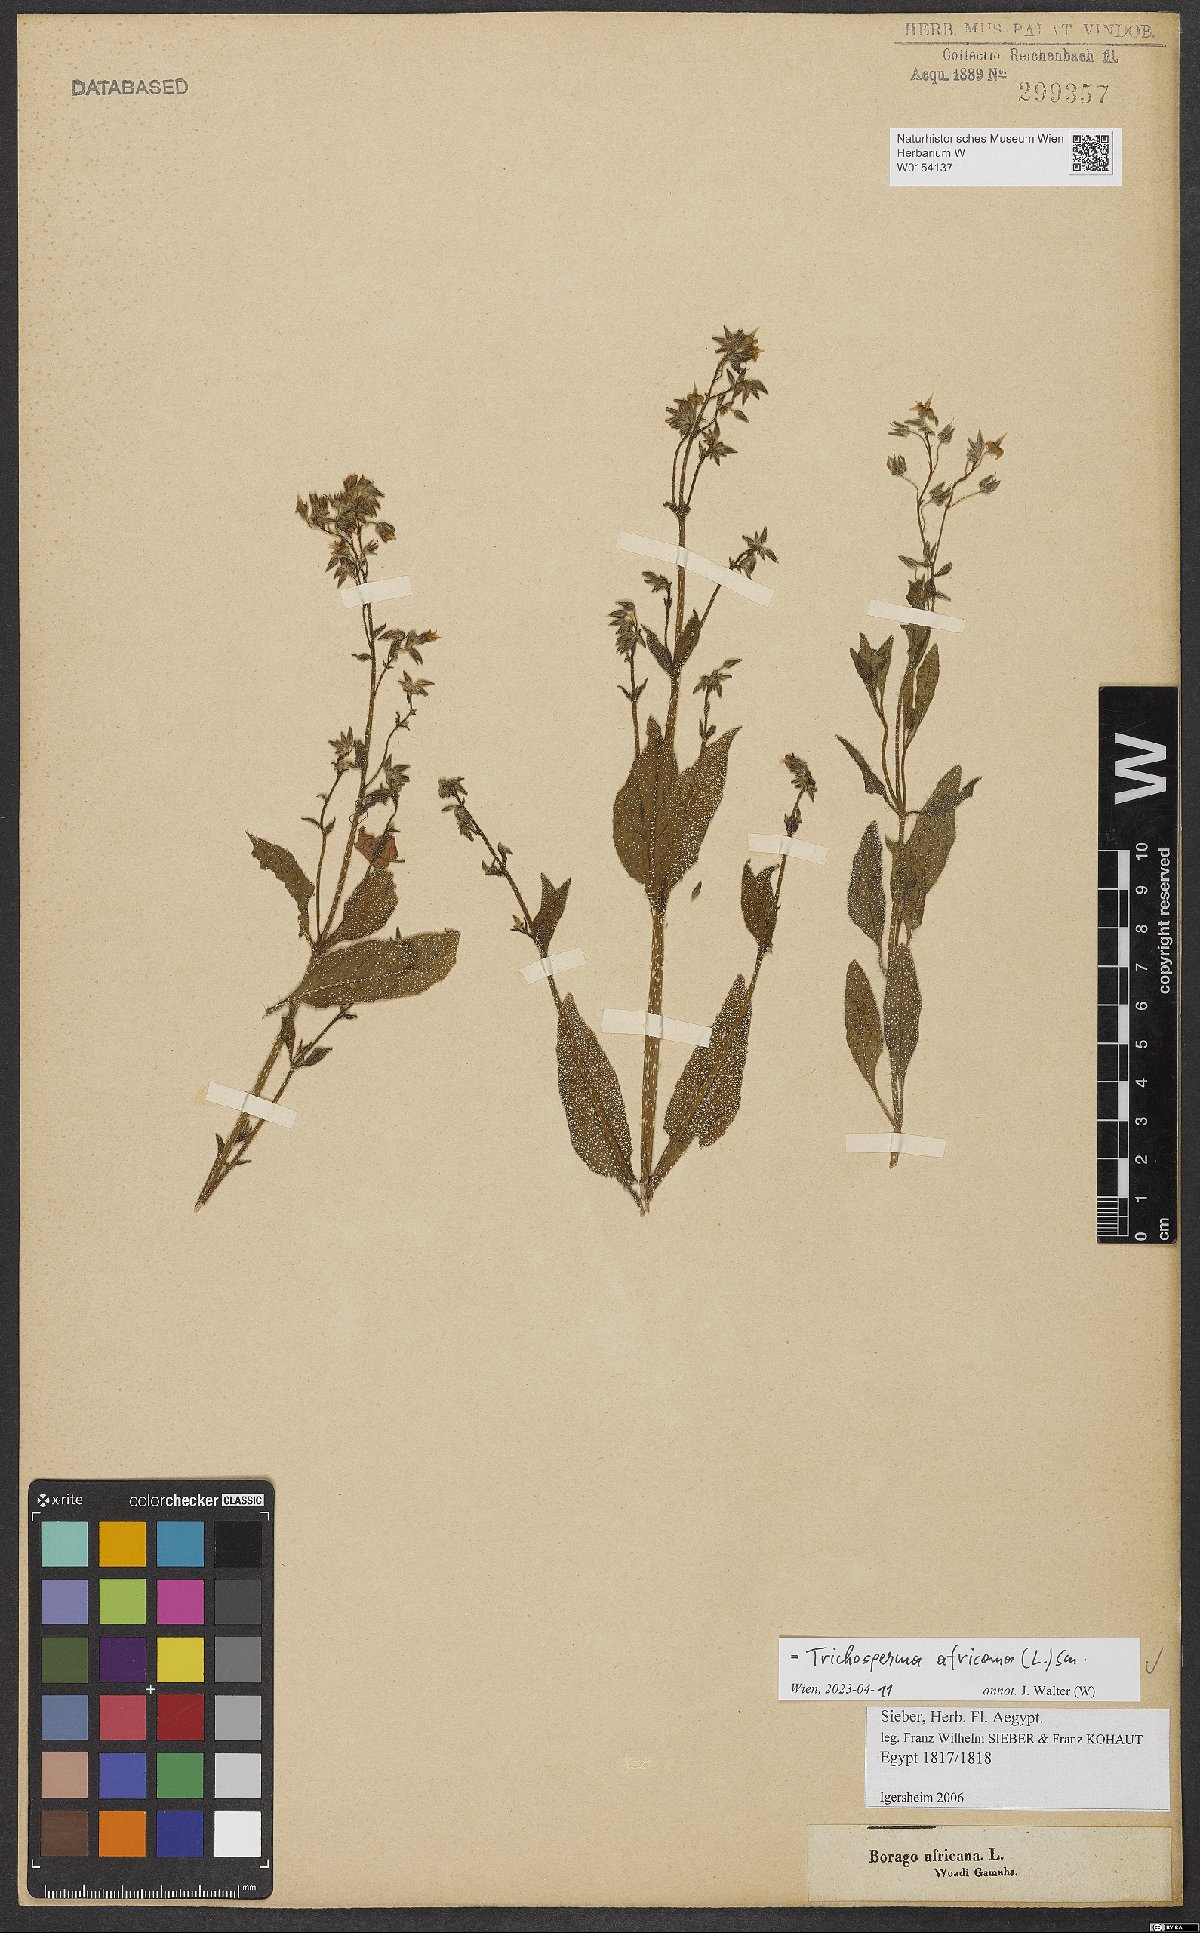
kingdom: Plantae
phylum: Tracheophyta
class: Magnoliopsida
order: Boraginales
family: Boraginaceae
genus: Trichodesma
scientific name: Trichodesma africanum
